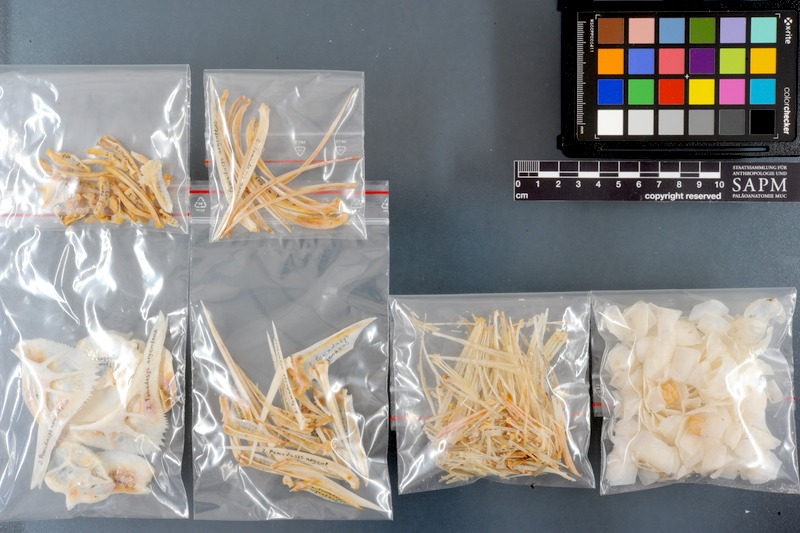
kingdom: Animalia
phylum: Chordata
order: Perciformes
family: Haemulidae
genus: Pomadasys
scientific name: Pomadasys argyreus
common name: Bluecheek silver grunt
